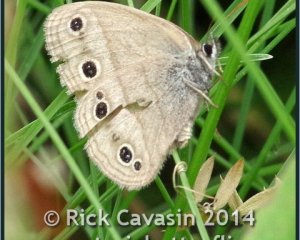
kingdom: Animalia
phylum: Arthropoda
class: Insecta
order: Lepidoptera
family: Nymphalidae
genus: Euptychia
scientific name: Euptychia cymela
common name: Little Wood Satyr
